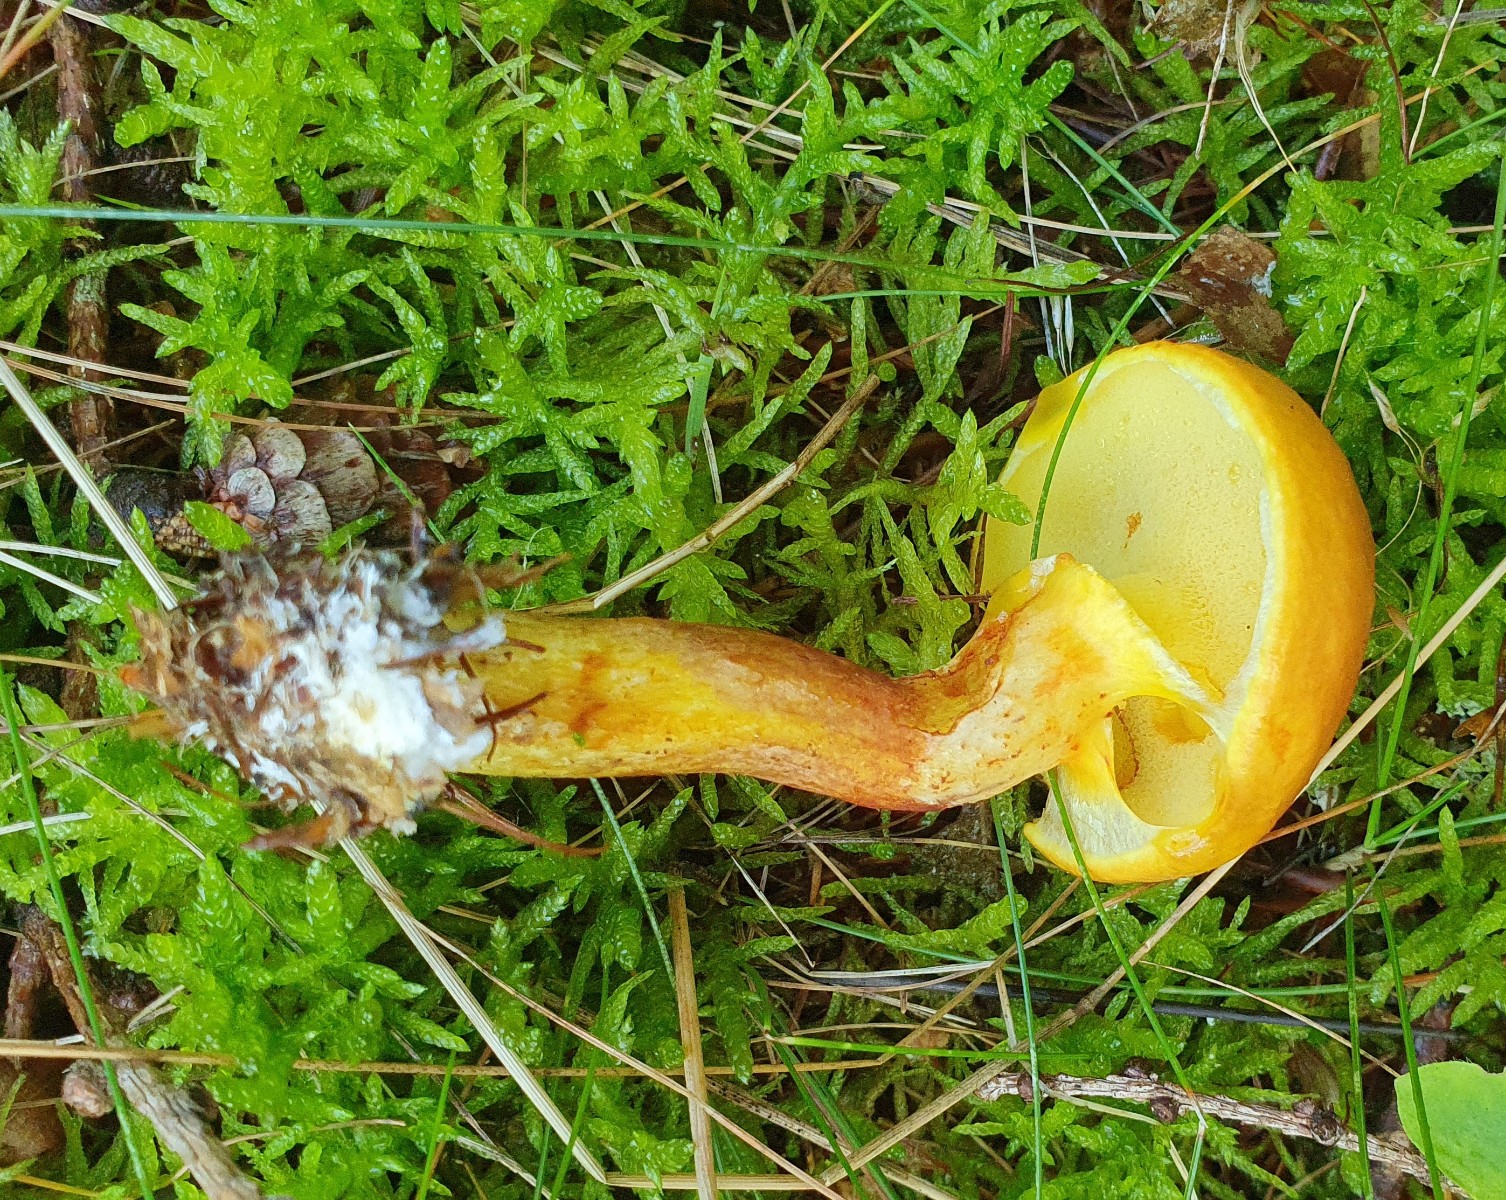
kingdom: Fungi
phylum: Basidiomycota
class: Agaricomycetes
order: Boletales
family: Suillaceae
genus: Suillus
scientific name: Suillus grevillei
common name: lærke-slimrørhat
